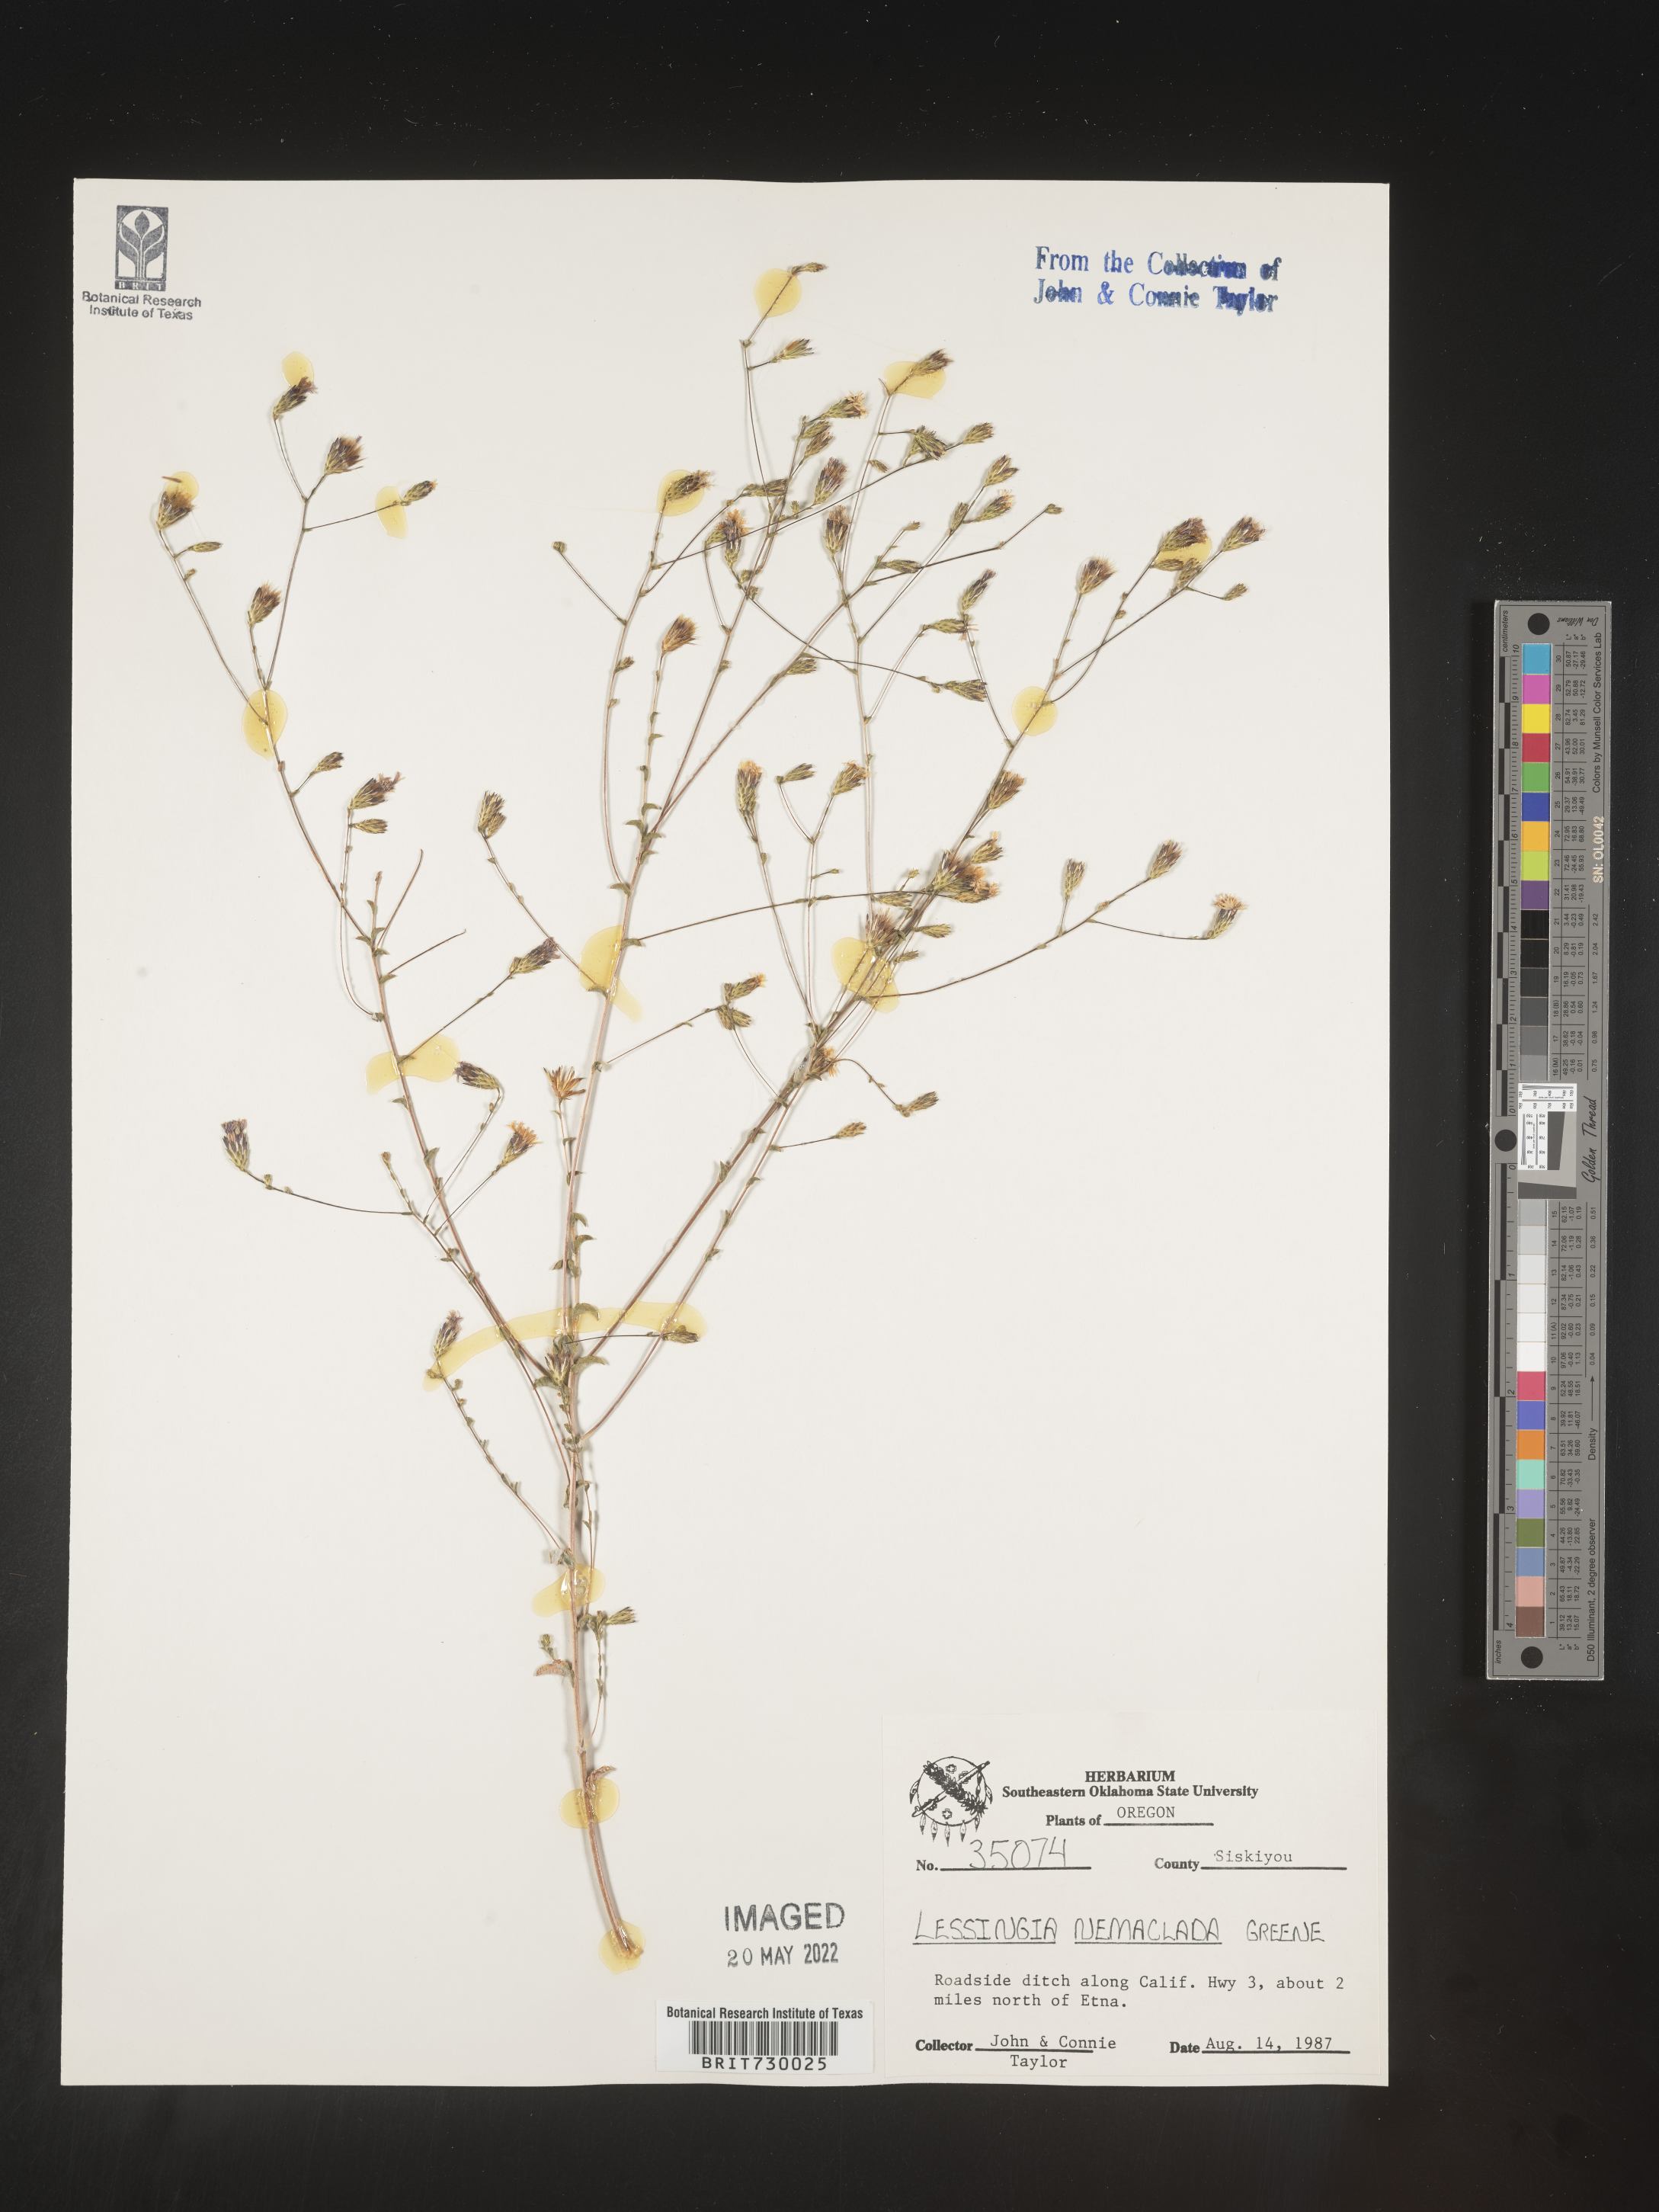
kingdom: Plantae
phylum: Tracheophyta
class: Magnoliopsida
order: Asterales
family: Asteraceae
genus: Lessingia
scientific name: Lessingia
